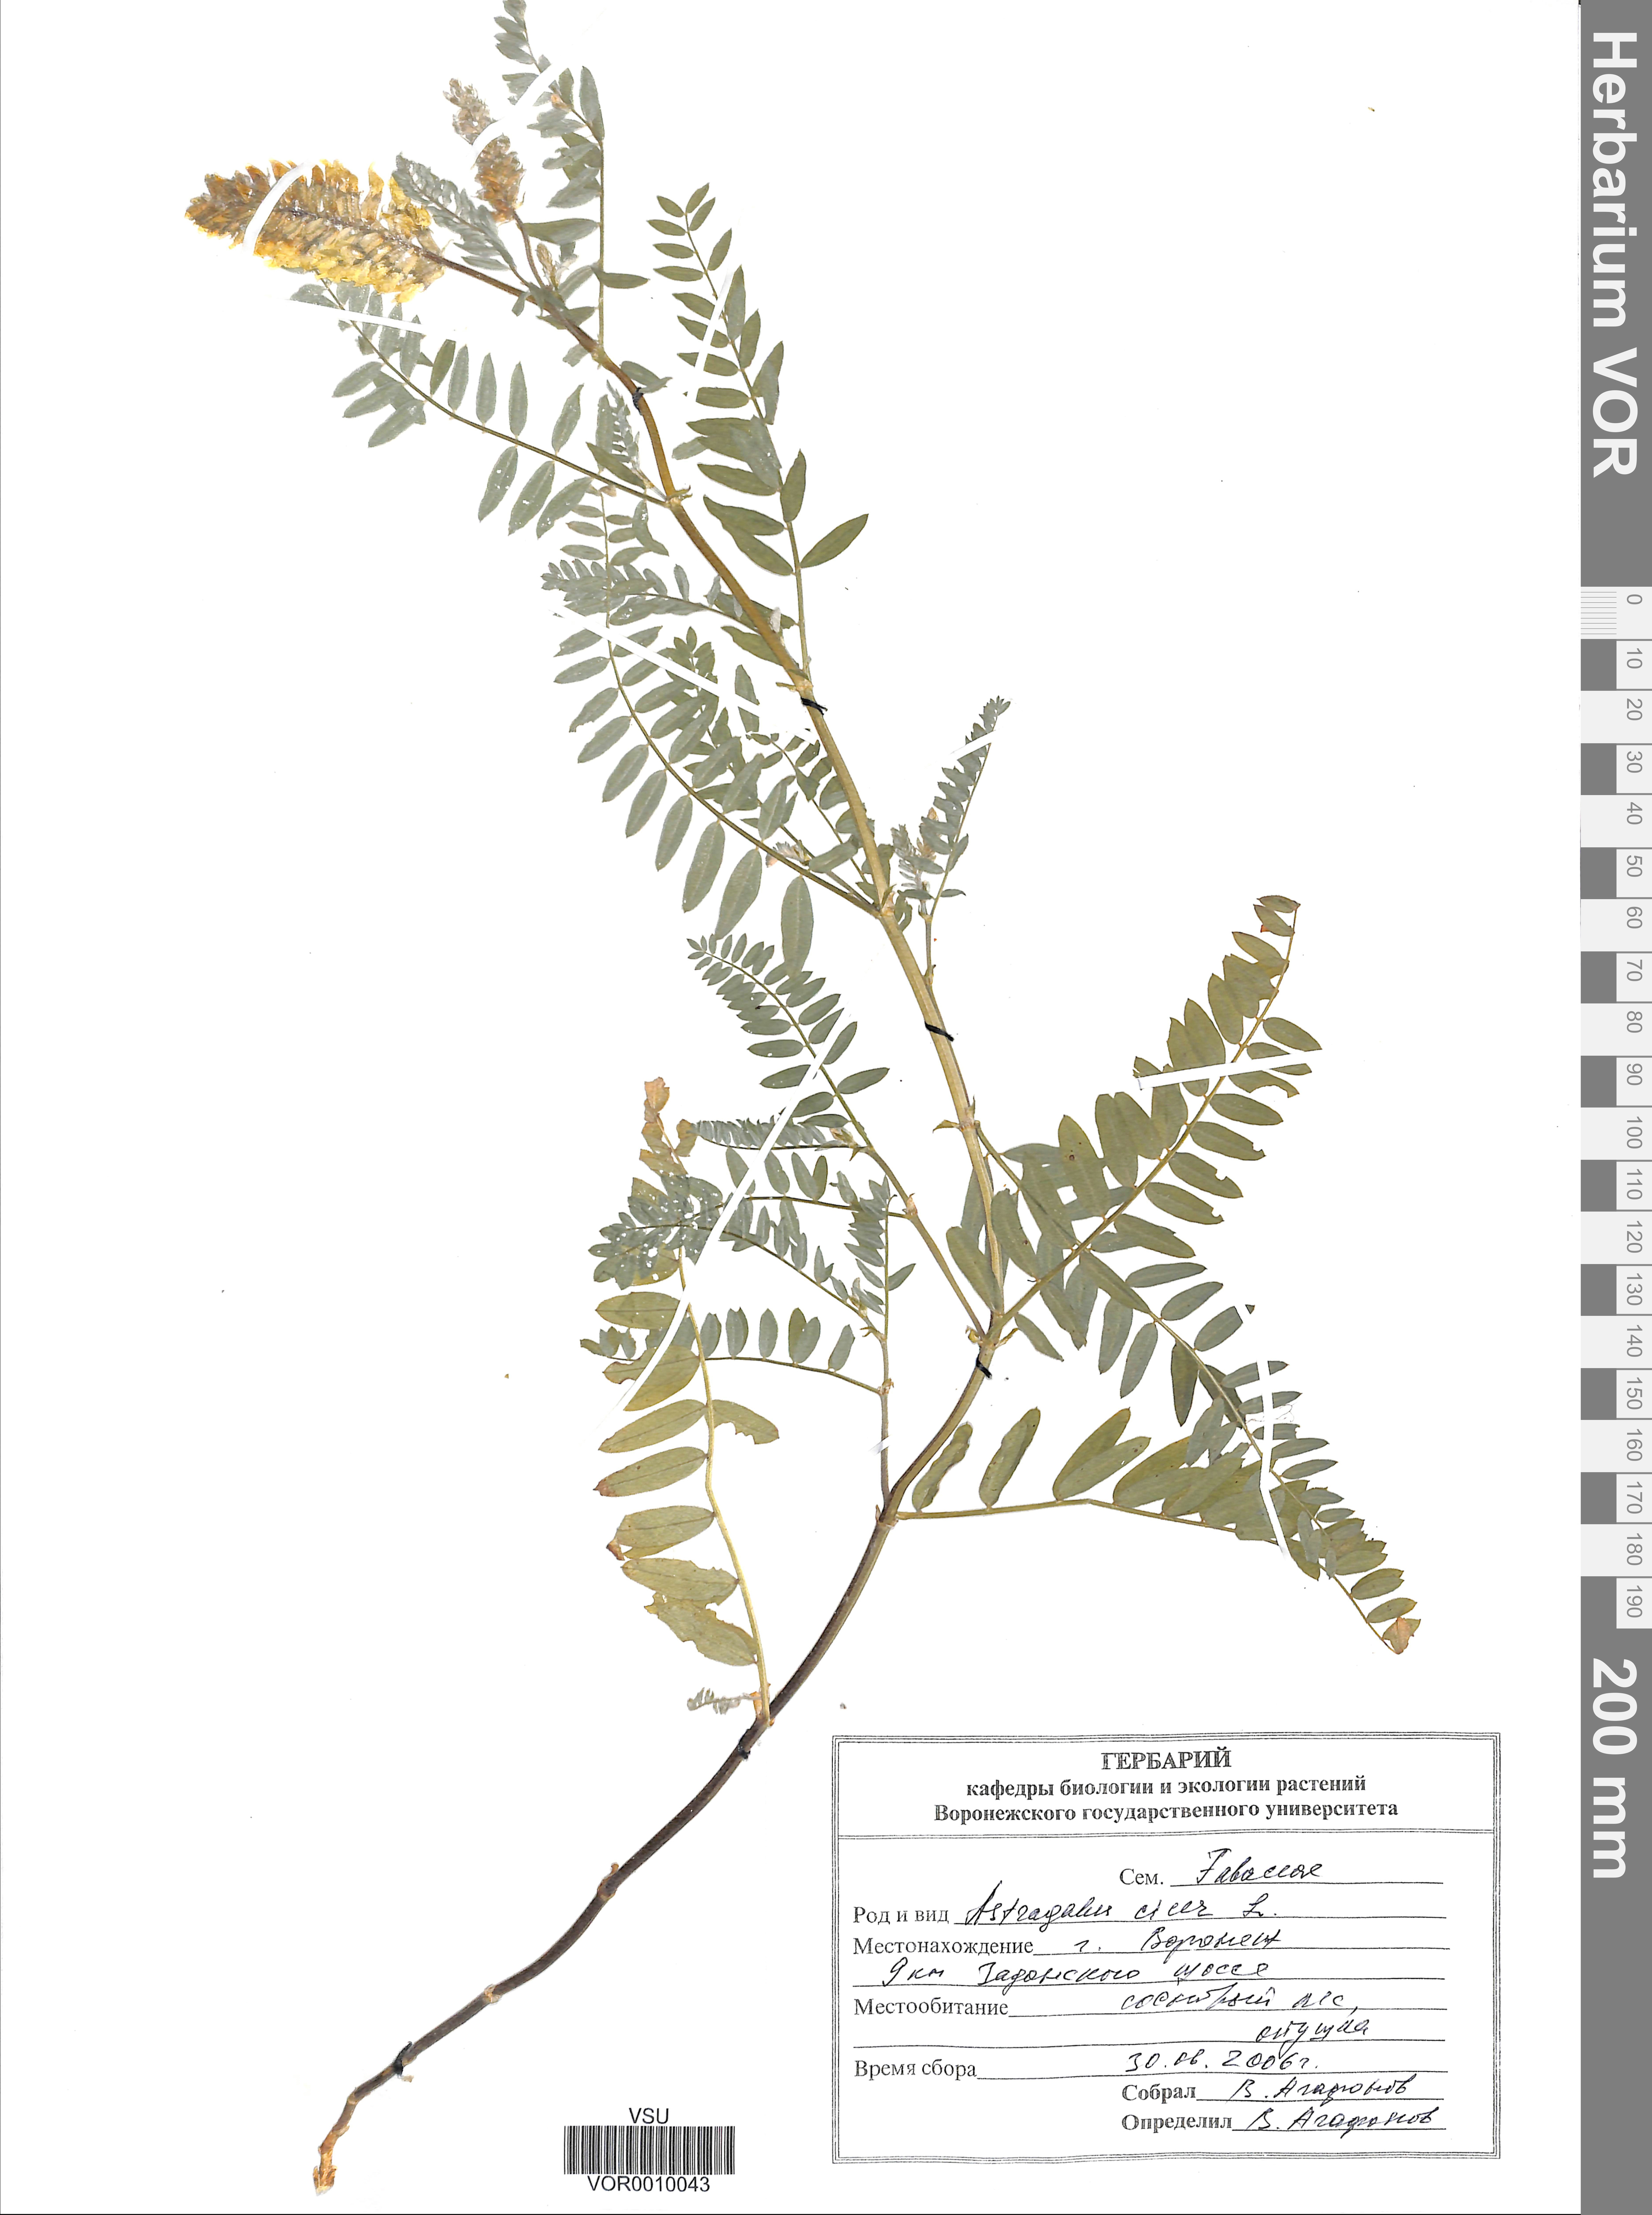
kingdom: Plantae
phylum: Tracheophyta
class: Magnoliopsida
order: Fabales
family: Fabaceae
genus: Astragalus
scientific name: Astragalus cicer
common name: Chick-pea milk-vetch
